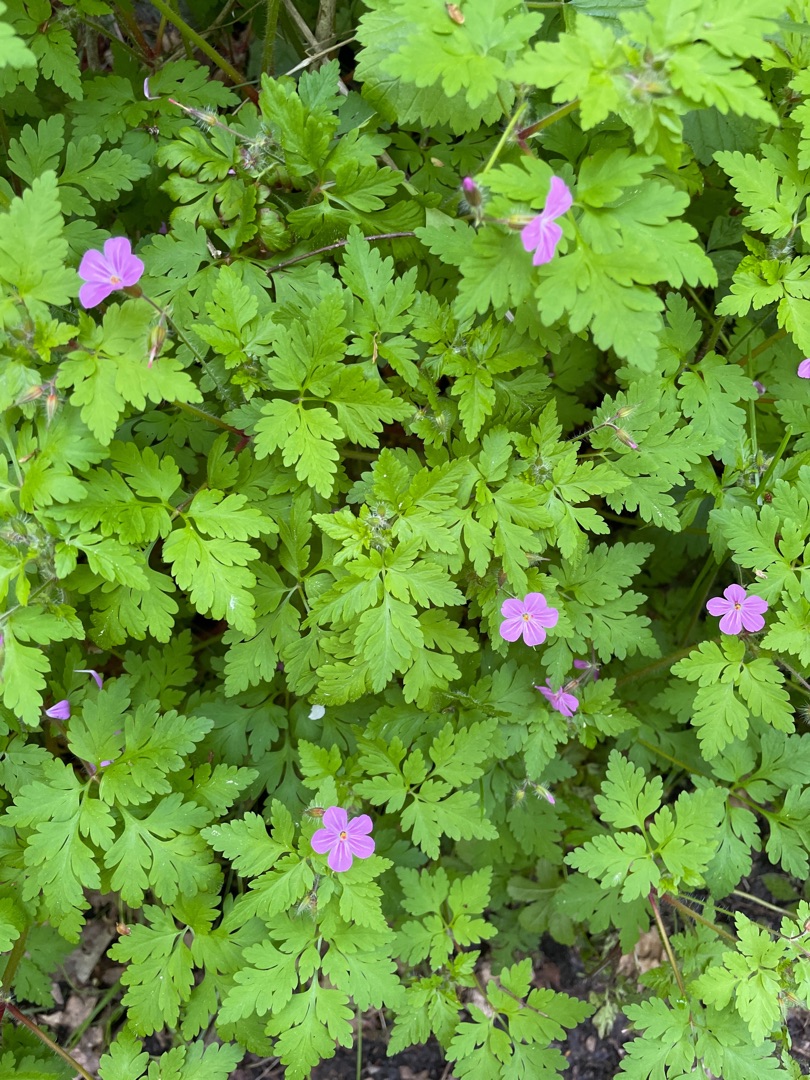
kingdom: Plantae
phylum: Tracheophyta
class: Magnoliopsida
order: Geraniales
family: Geraniaceae
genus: Geranium
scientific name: Geranium robertianum
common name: Stinkende storkenæb
